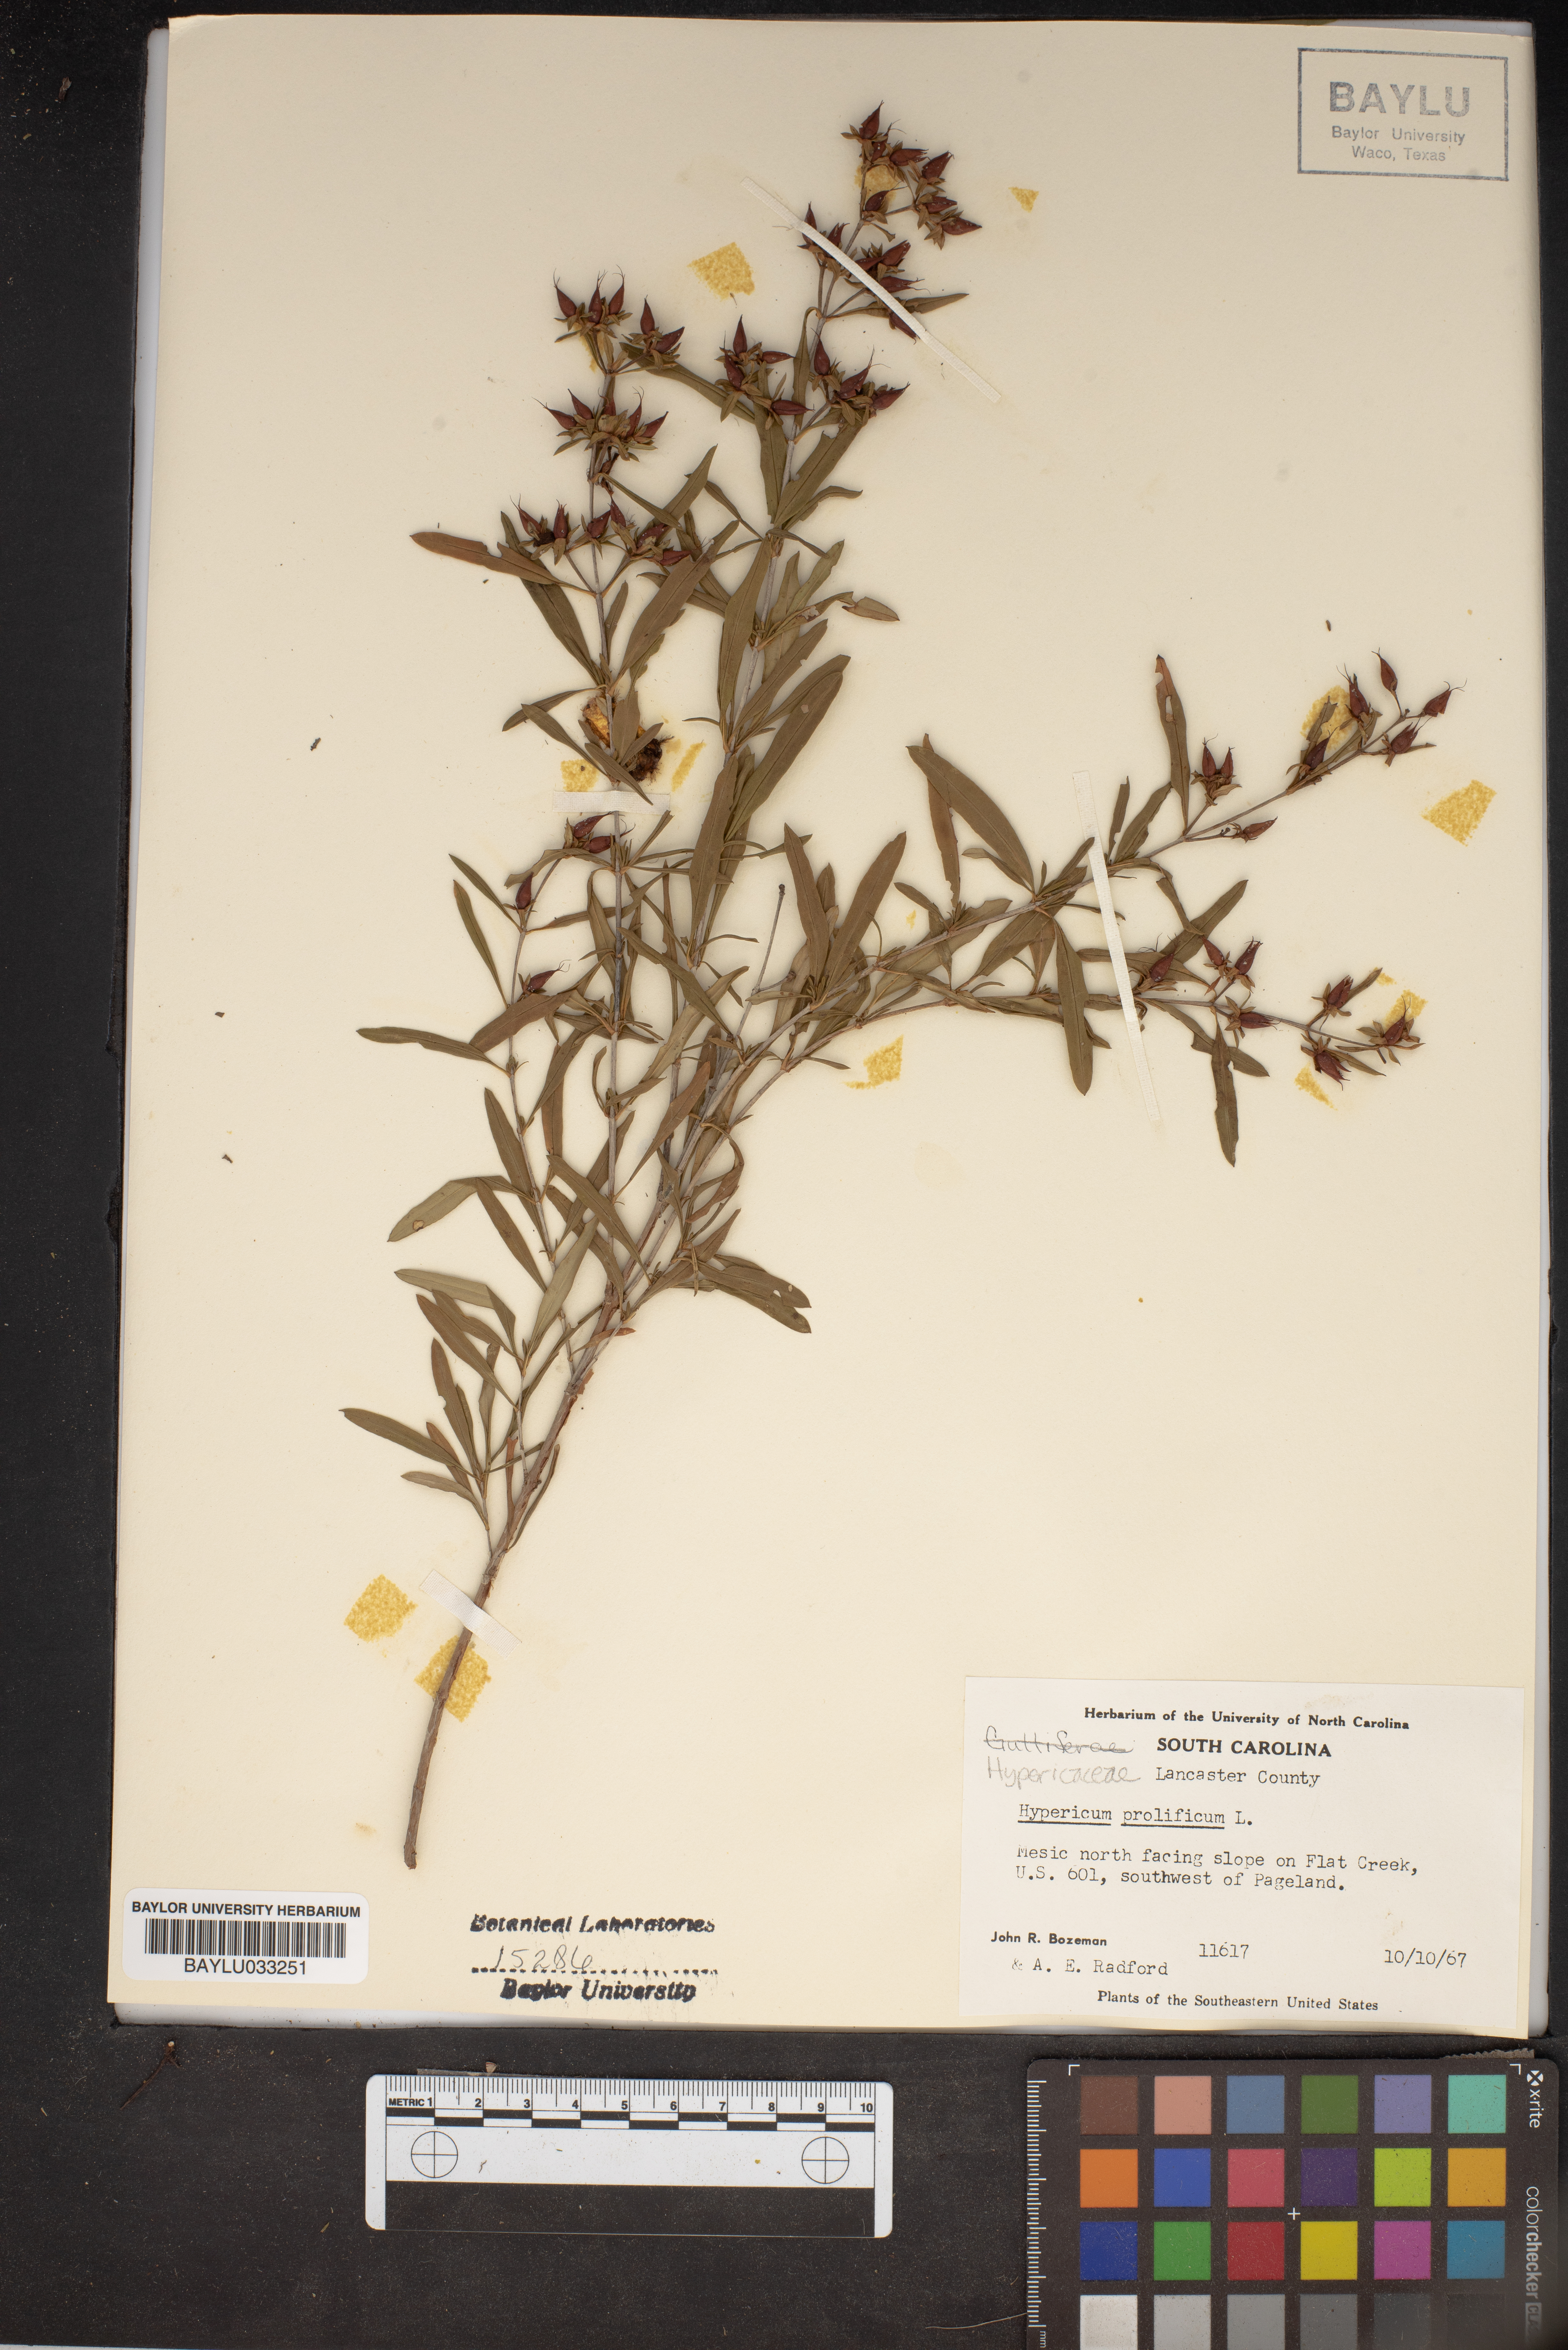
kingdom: Plantae
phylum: Tracheophyta
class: Magnoliopsida
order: Malpighiales
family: Hypericaceae
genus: Hypericum
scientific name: Hypericum prolificum
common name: Shrubby st. john's-wort
